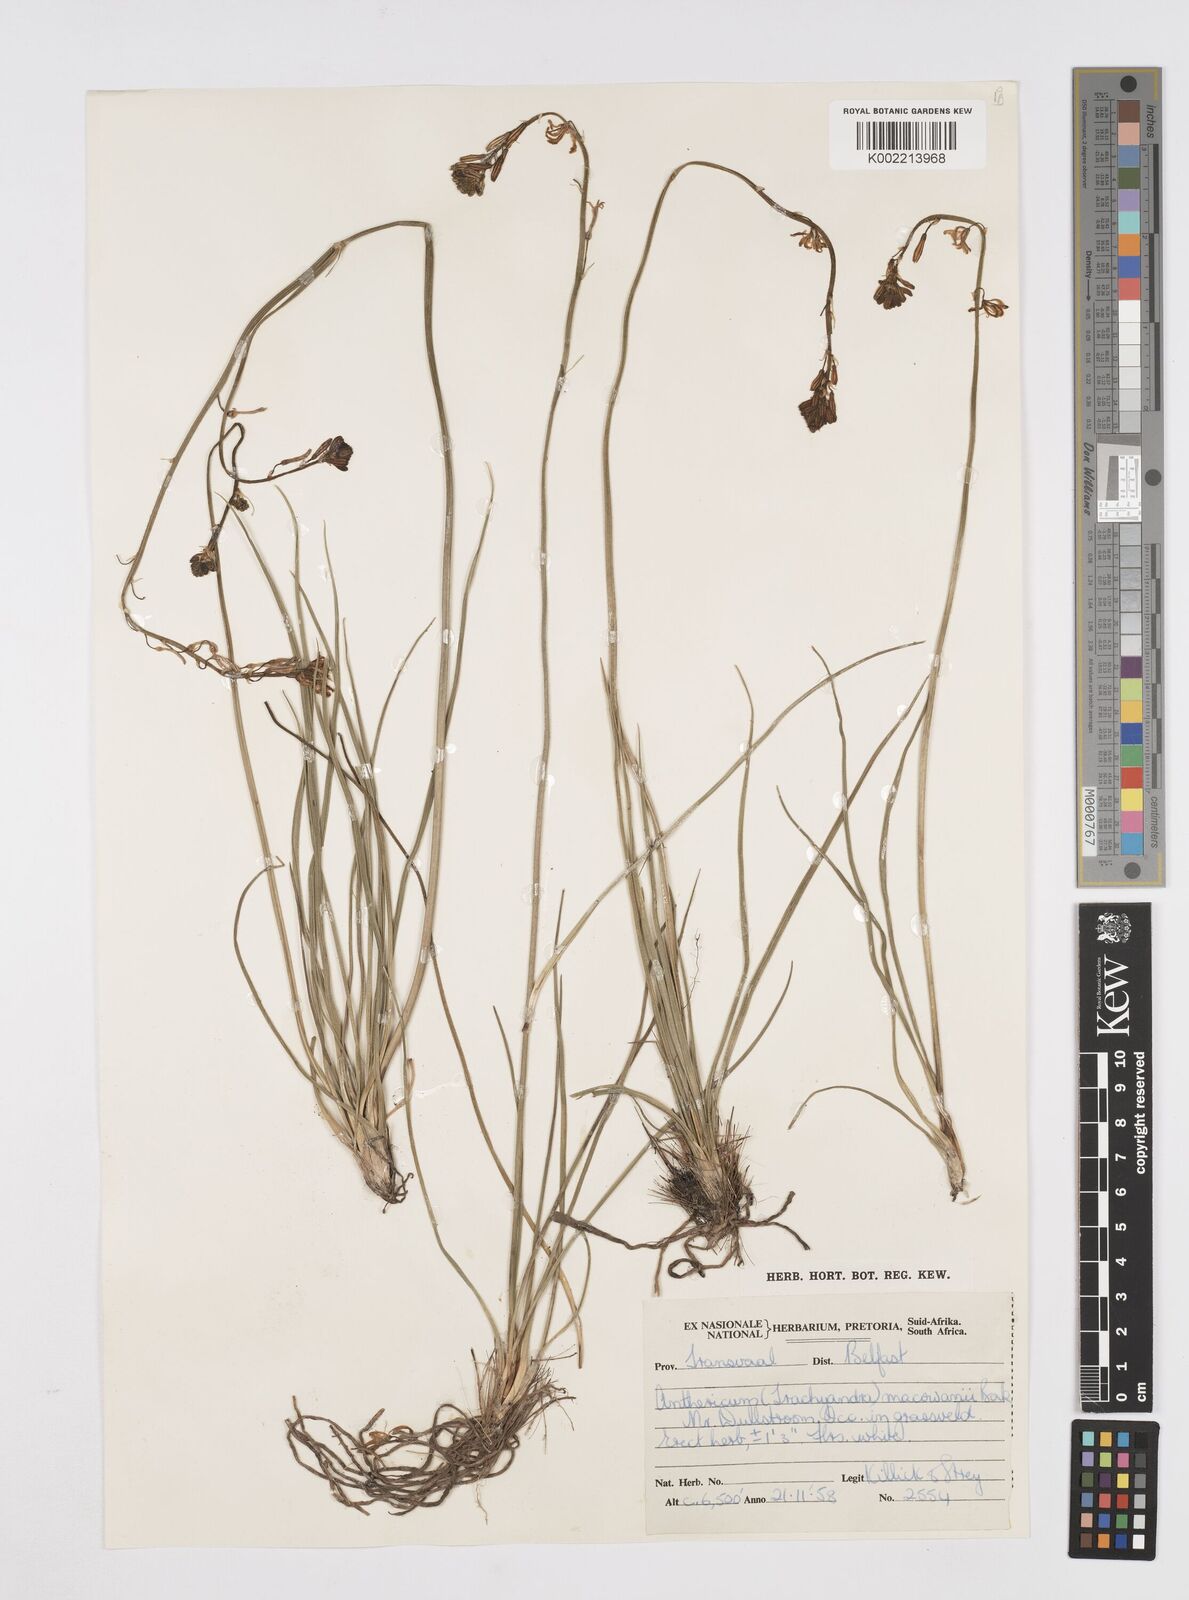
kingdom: Plantae
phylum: Tracheophyta
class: Liliopsida
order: Asparagales
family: Asphodelaceae
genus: Trachyandra
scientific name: Trachyandra asperata
